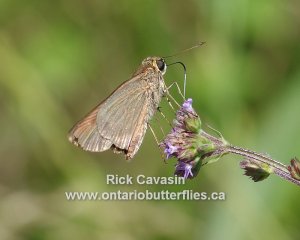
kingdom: Animalia
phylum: Arthropoda
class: Insecta
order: Lepidoptera
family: Hesperiidae
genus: Panoquina
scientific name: Panoquina ocola
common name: Ocola Skipper
